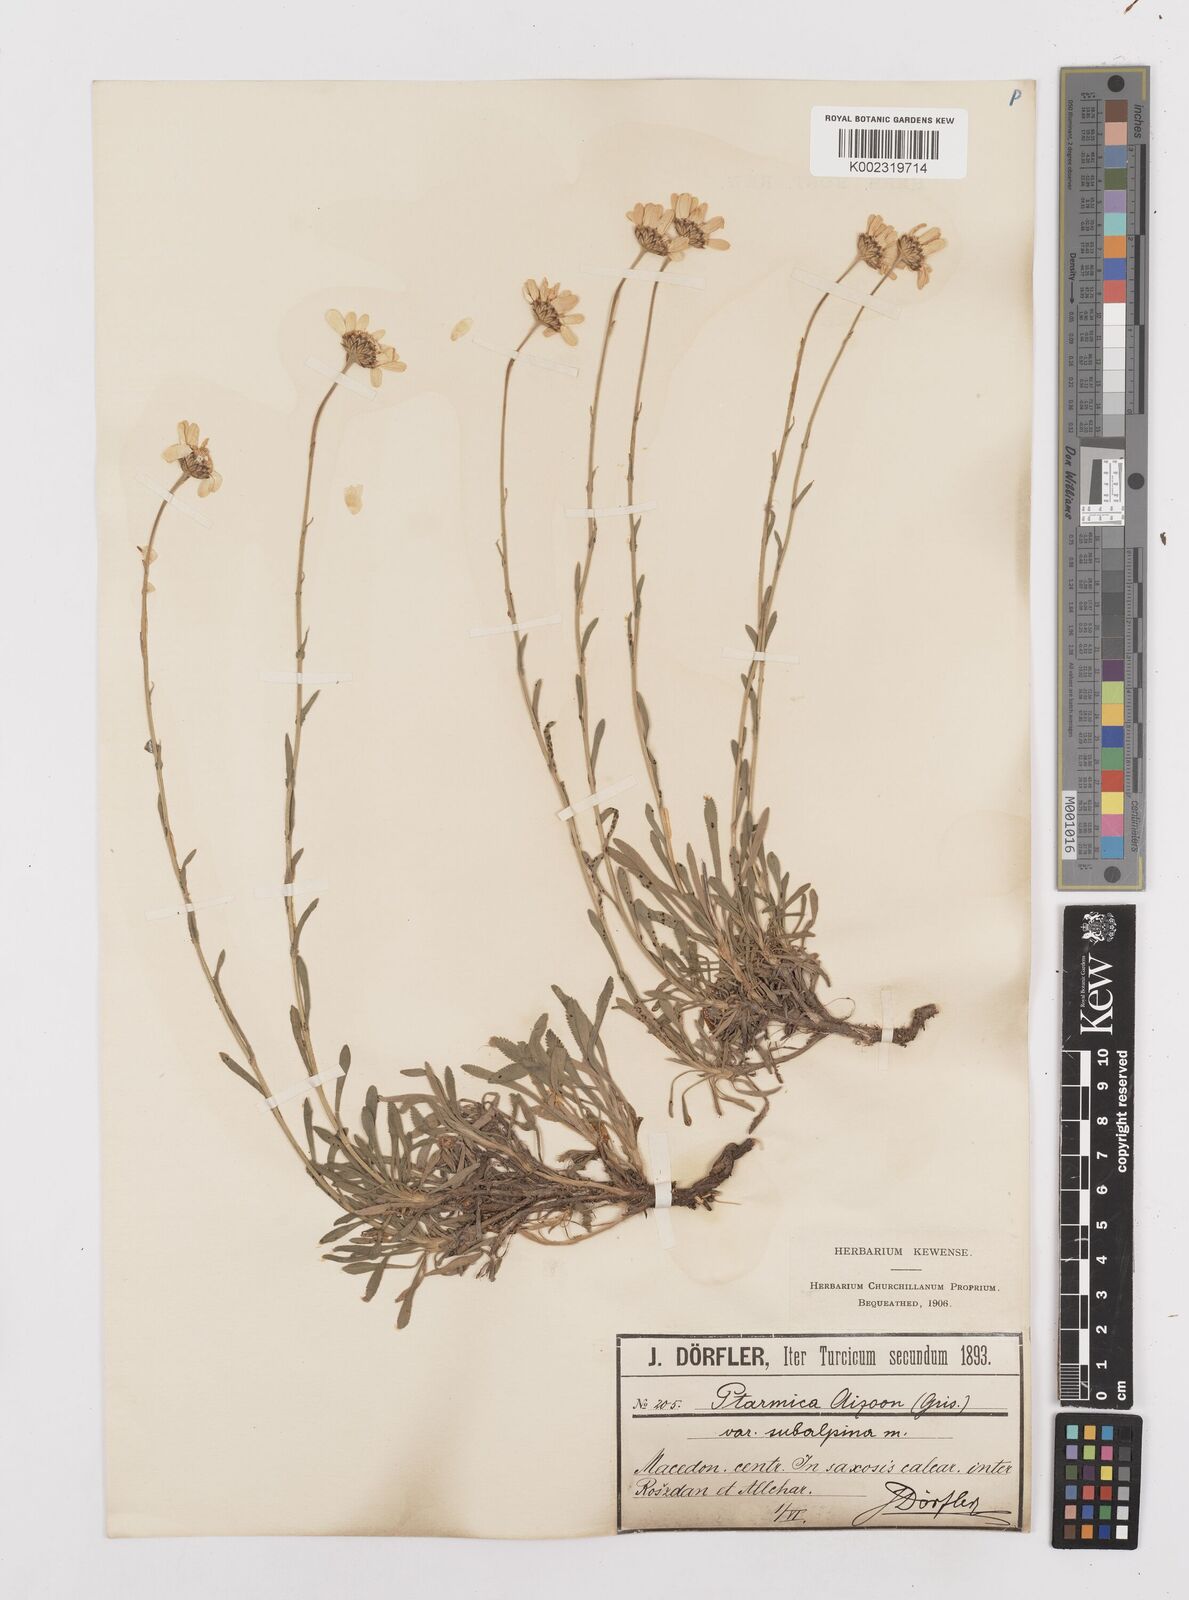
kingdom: Plantae
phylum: Tracheophyta
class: Magnoliopsida
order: Asterales
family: Asteraceae
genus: Achillea
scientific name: Achillea ageratifolia
